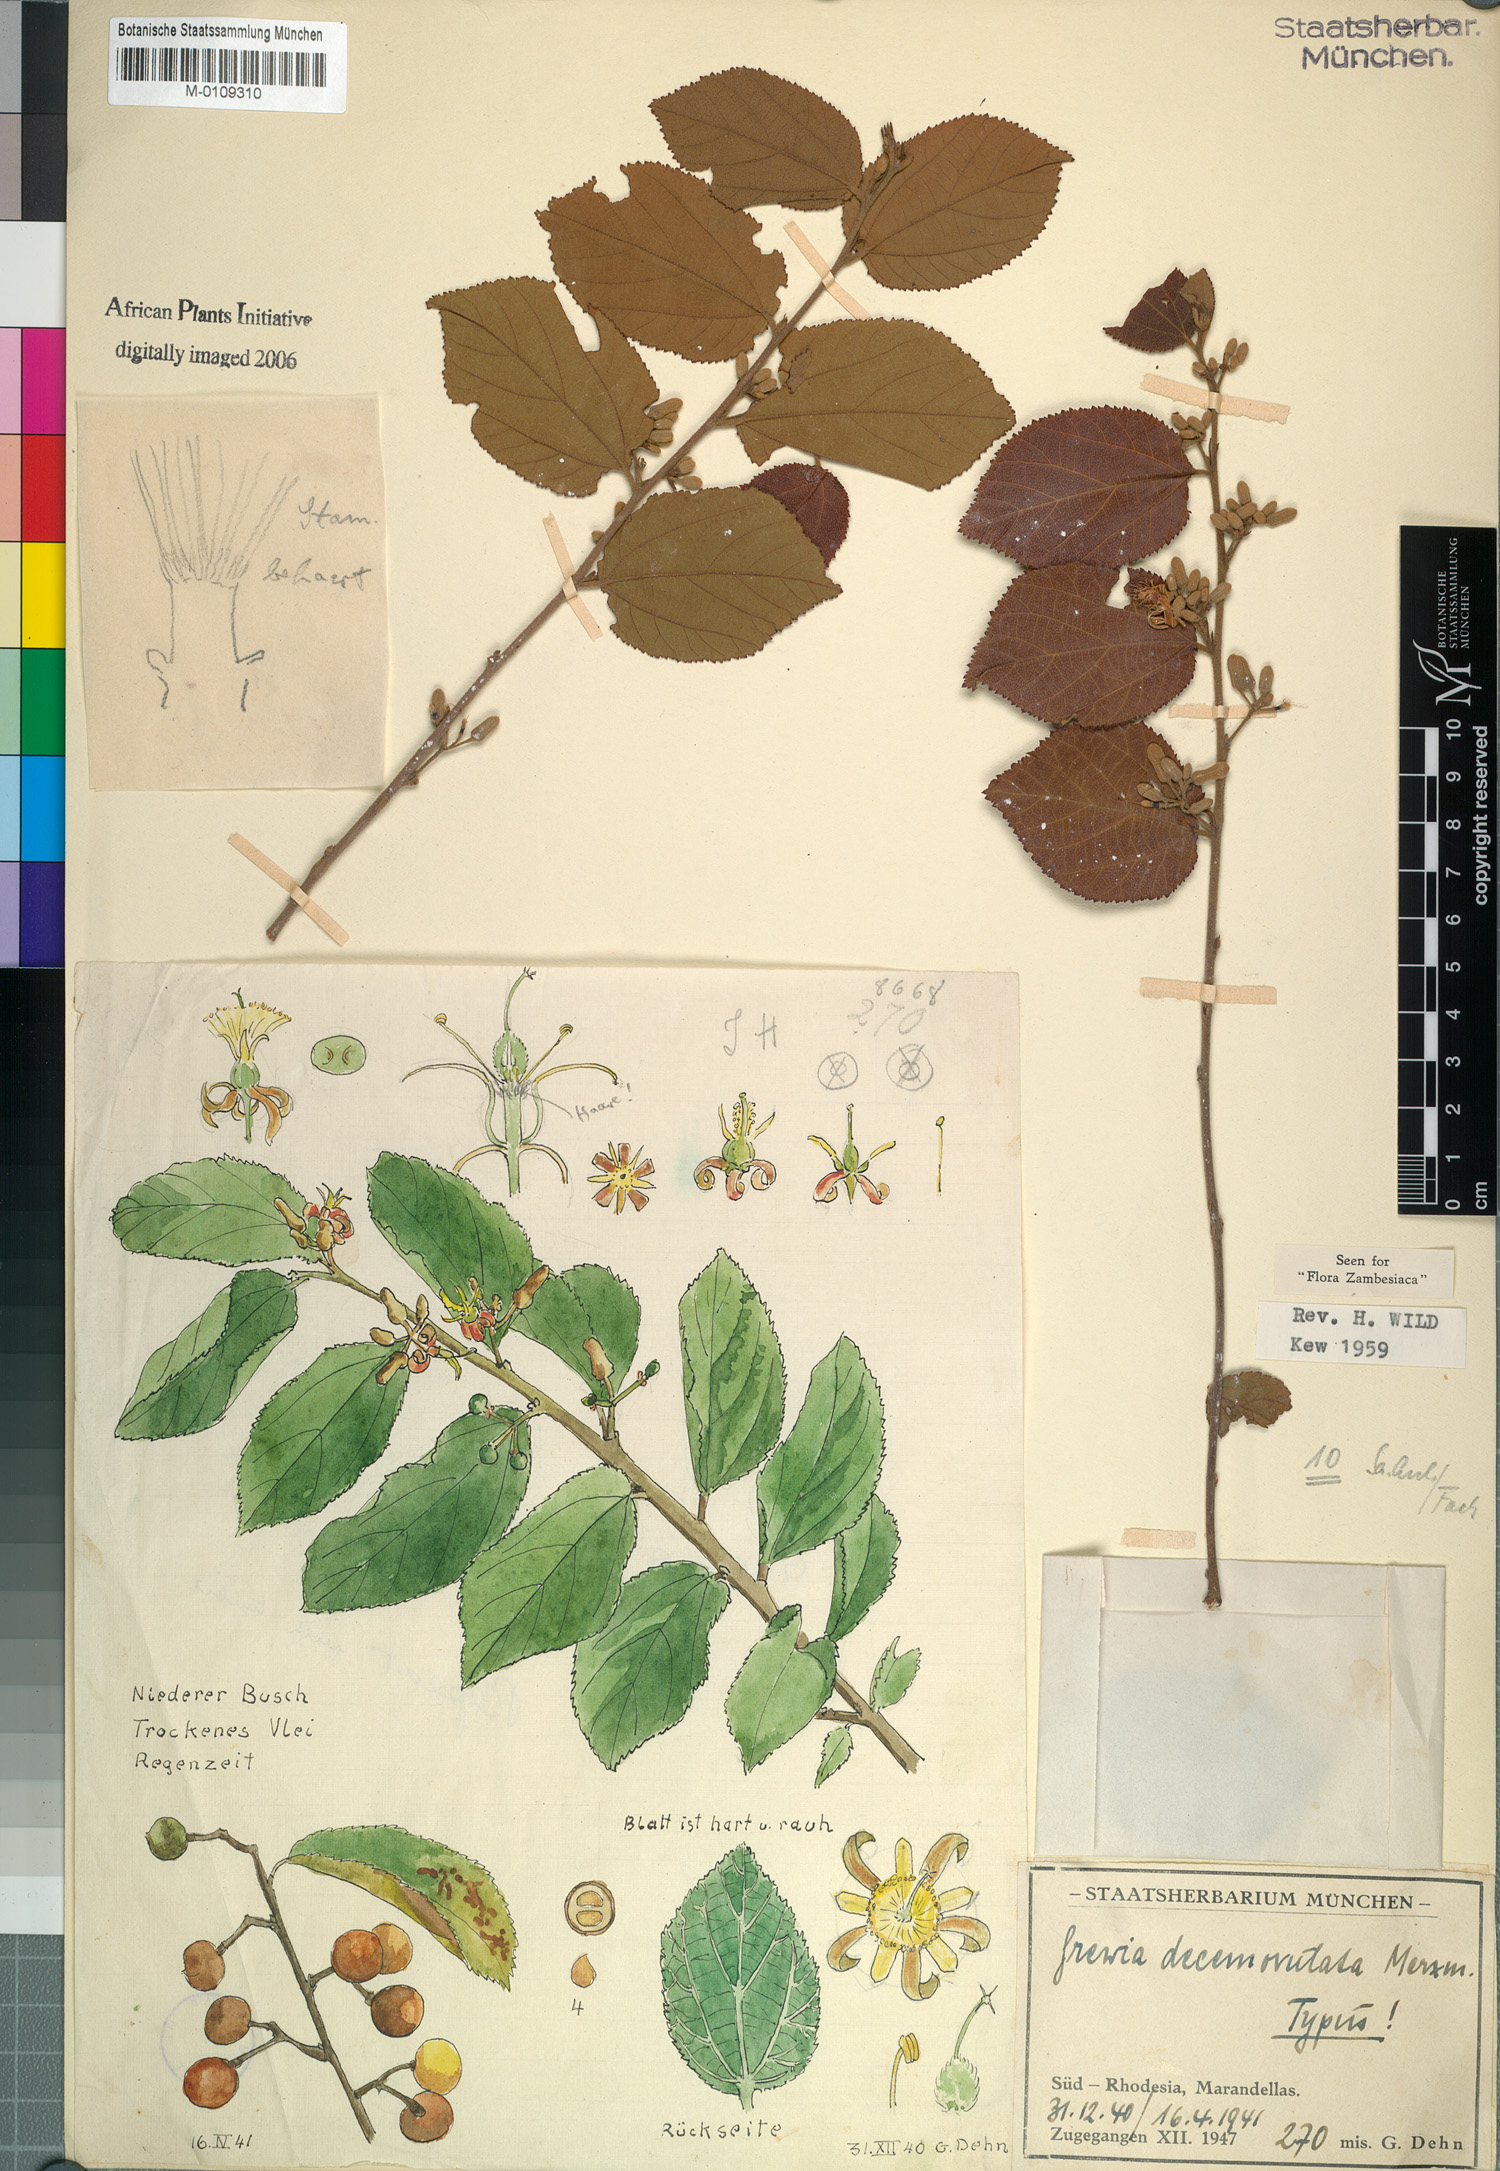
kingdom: Plantae
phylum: Tracheophyta
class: Magnoliopsida
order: Malvales
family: Malvaceae
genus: Grewia
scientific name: Grewia decemovulata
